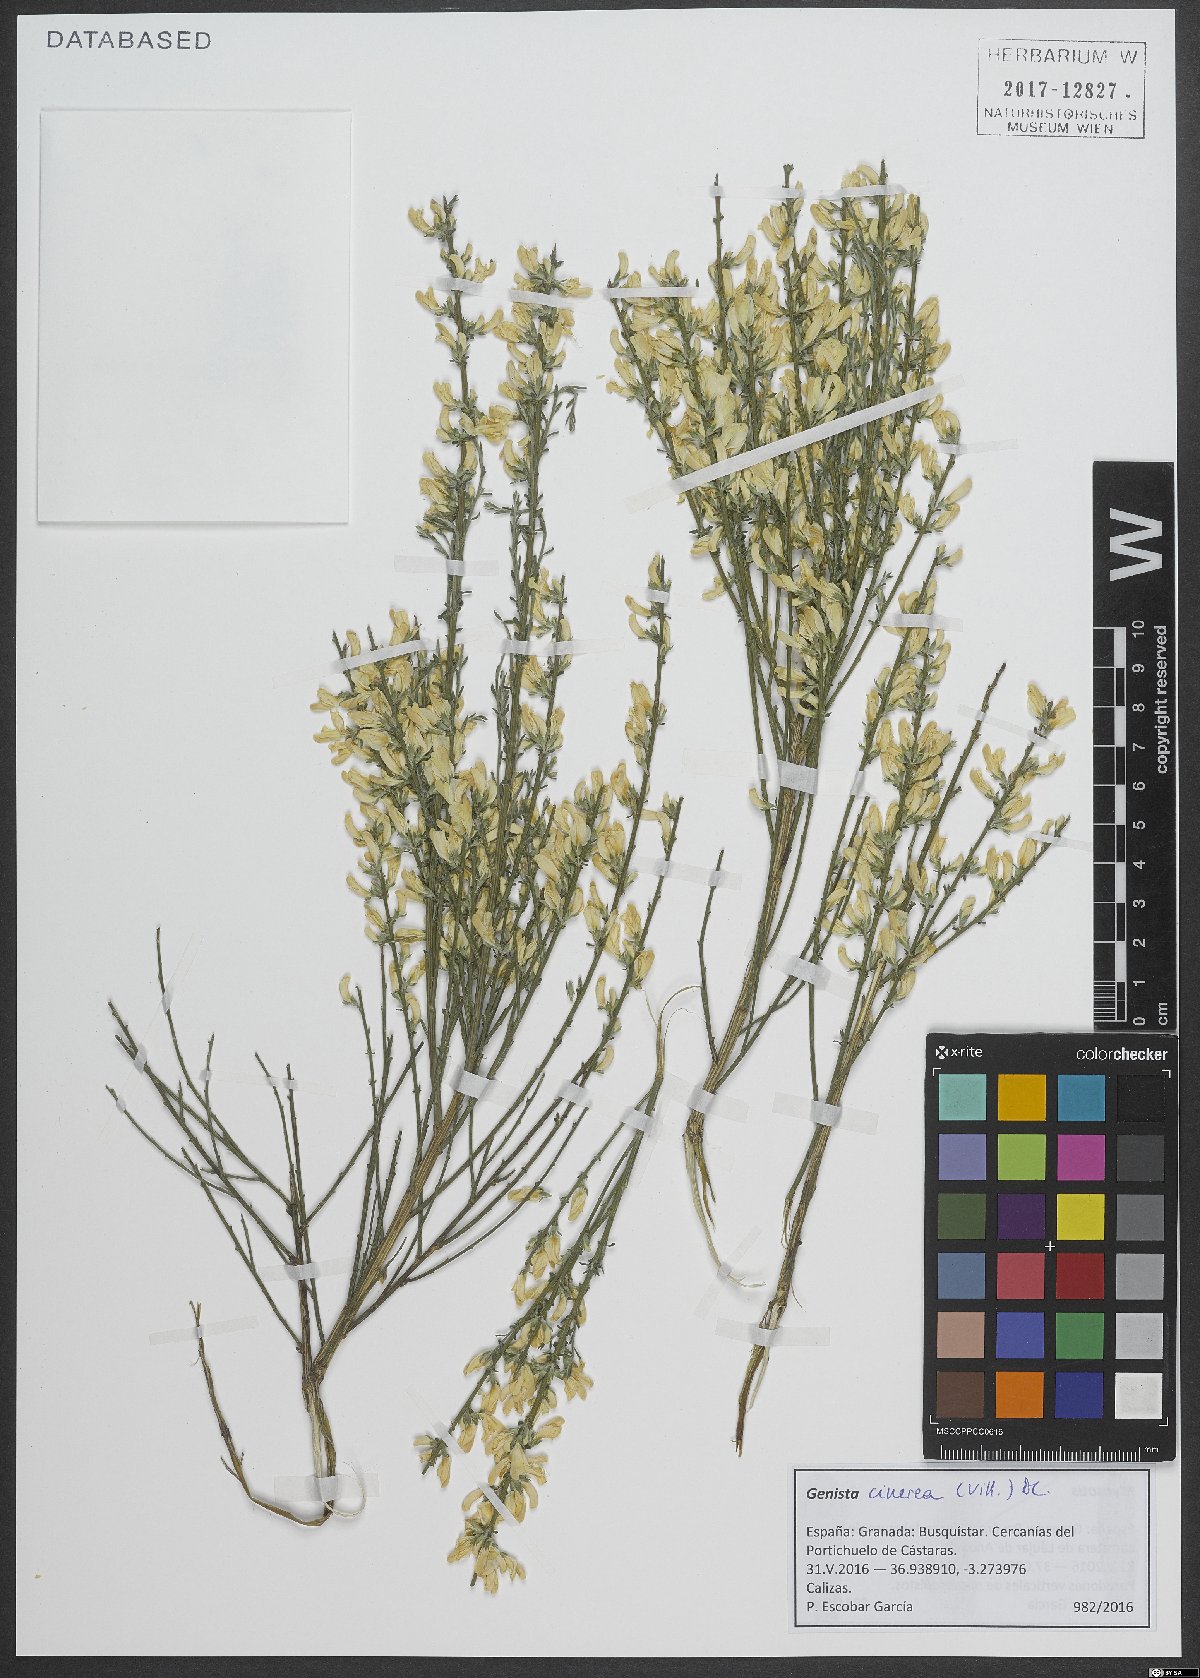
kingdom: Plantae
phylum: Tracheophyta
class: Magnoliopsida
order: Fabales
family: Fabaceae
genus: Genista
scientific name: Genista cinerea
